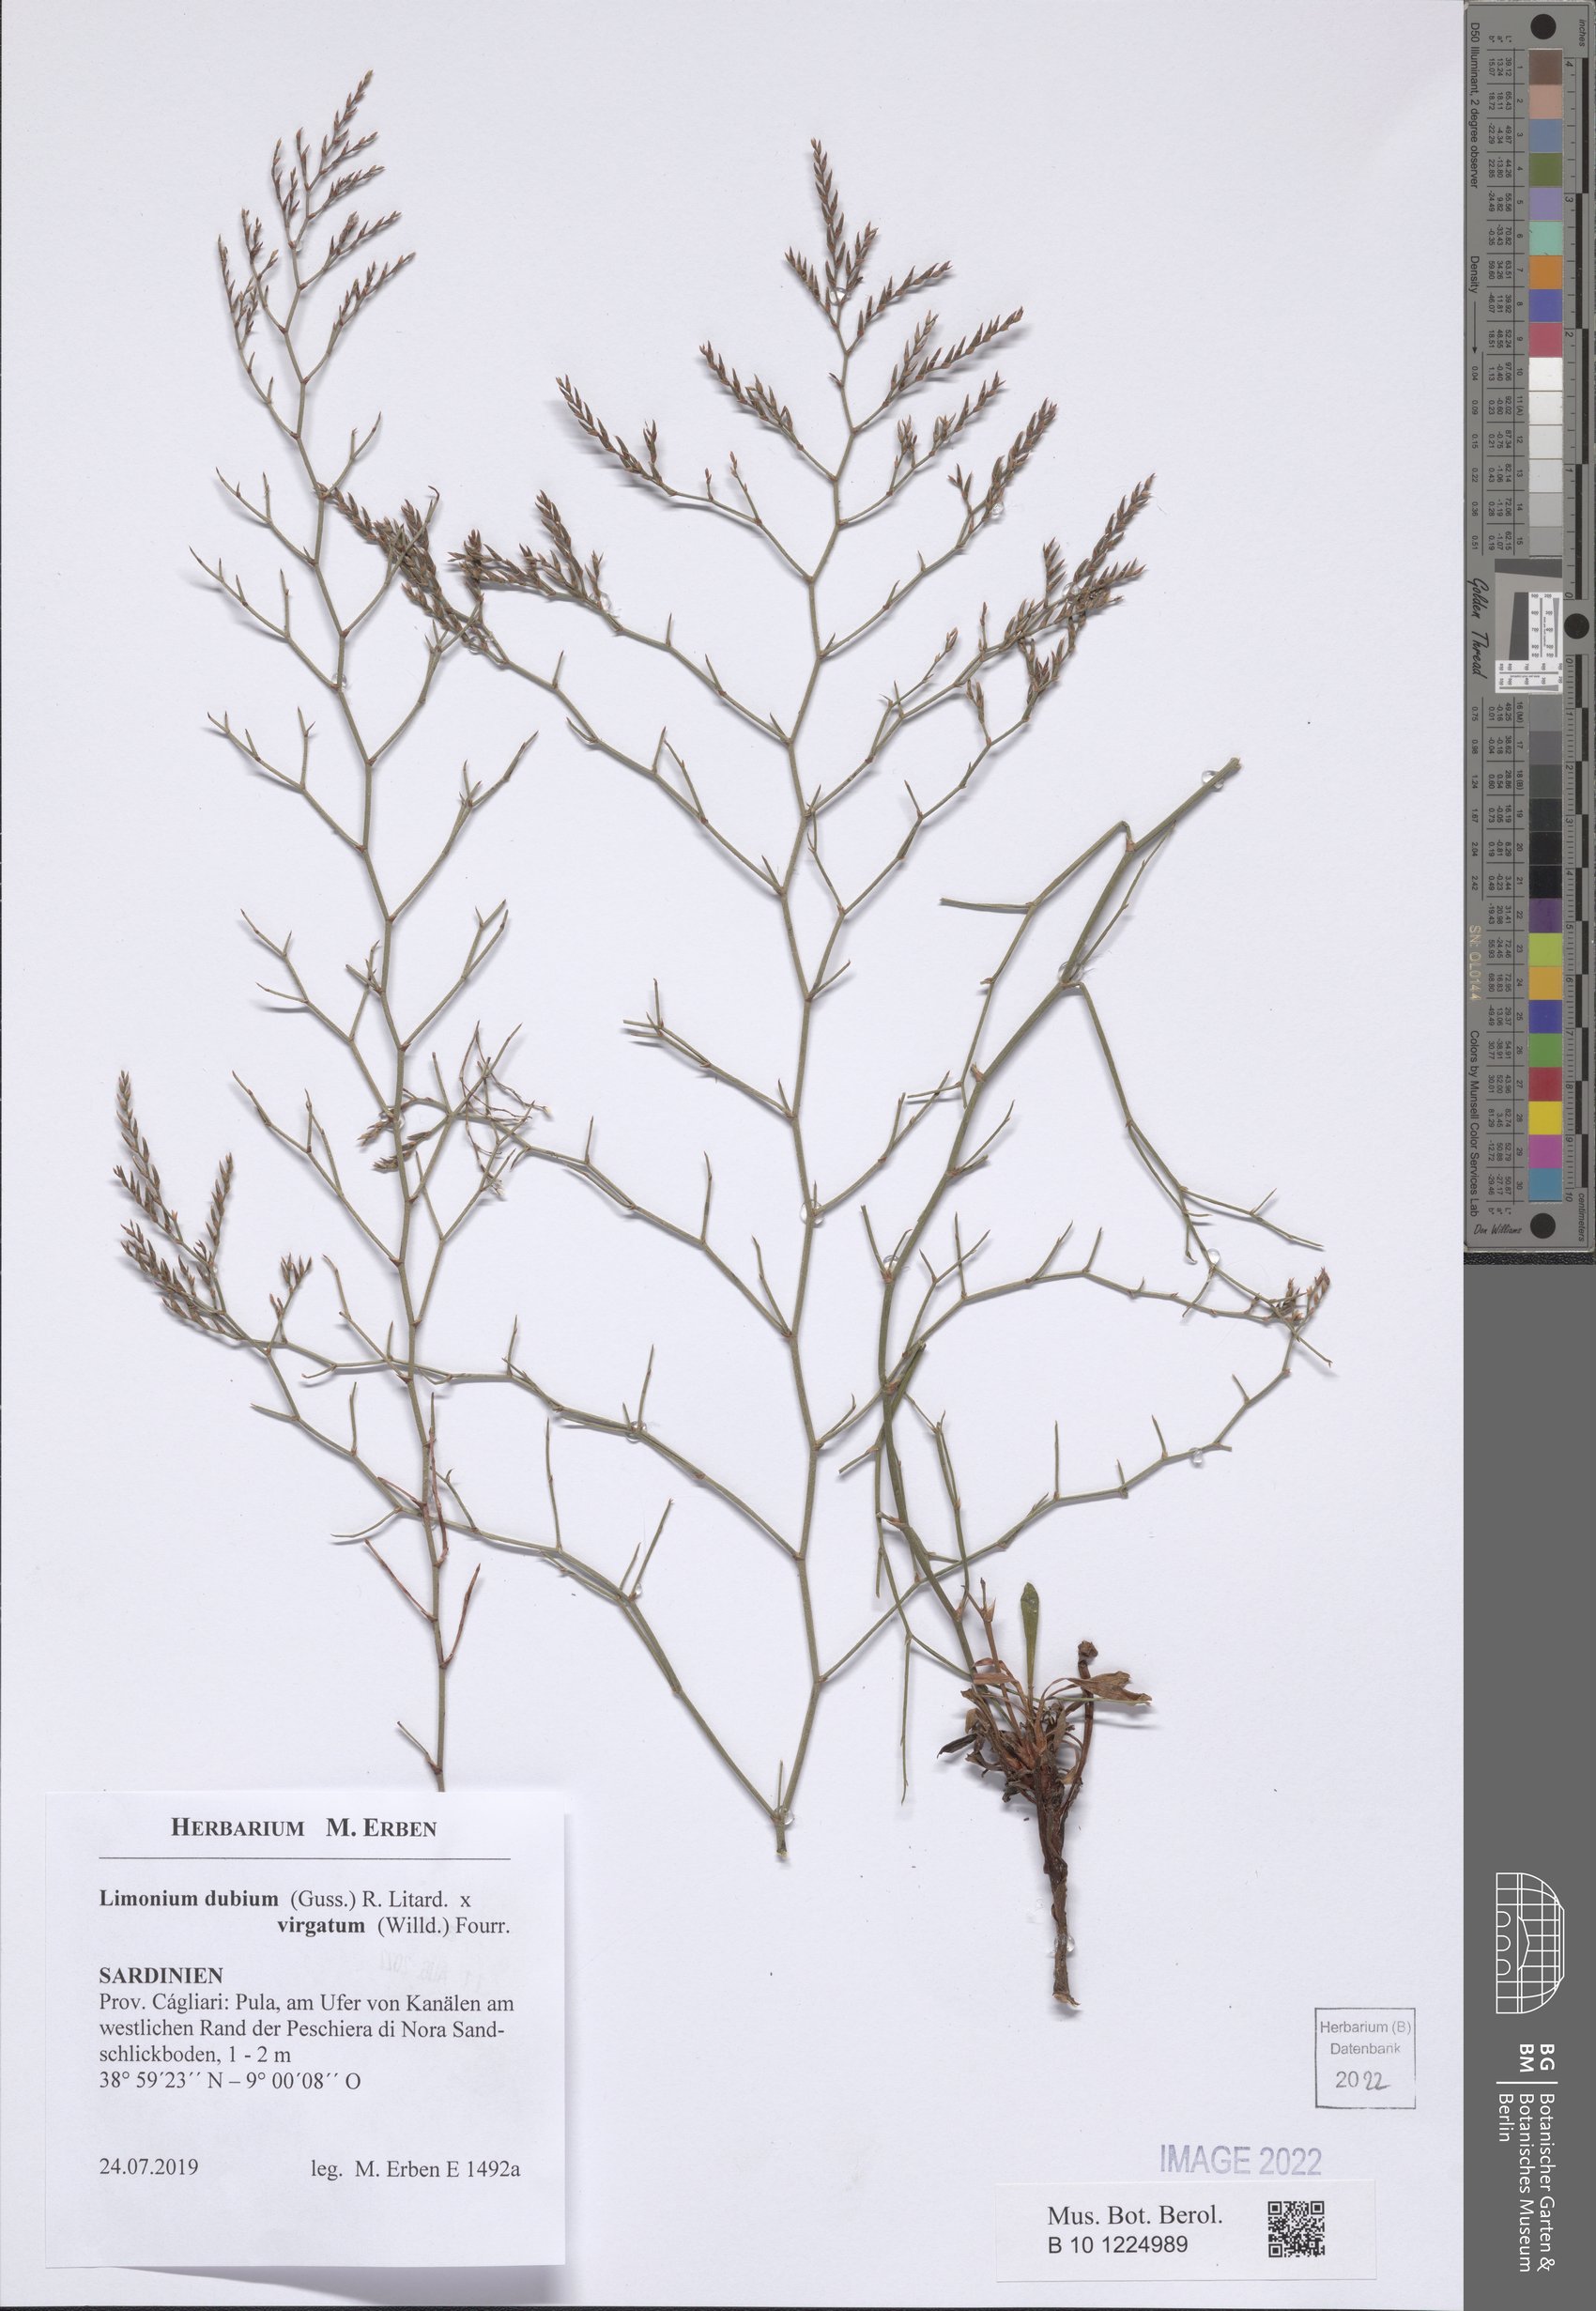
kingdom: Plantae
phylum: Tracheophyta
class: Magnoliopsida
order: Caryophyllales
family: Plumbaginaceae
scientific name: Plumbaginaceae
